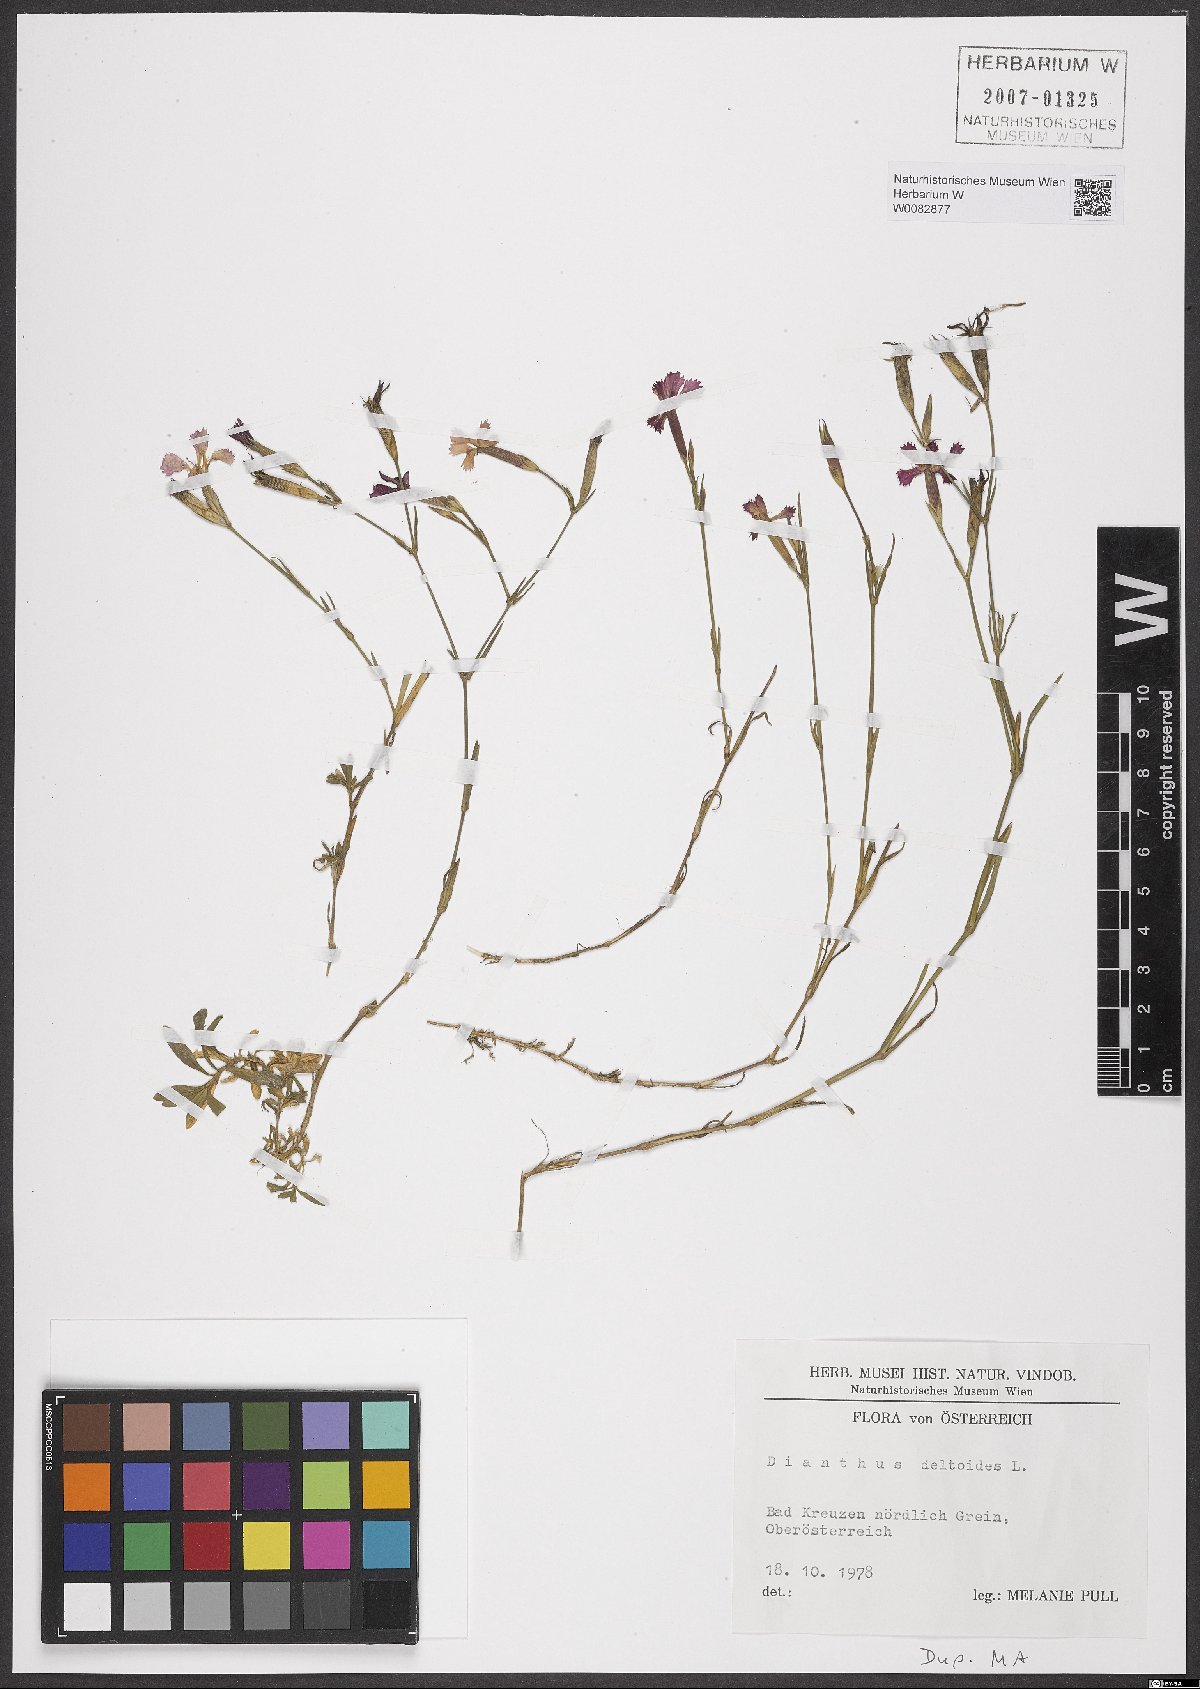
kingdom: Plantae
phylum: Tracheophyta
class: Magnoliopsida
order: Caryophyllales
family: Caryophyllaceae
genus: Dianthus
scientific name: Dianthus deltoides
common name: Maiden pink
